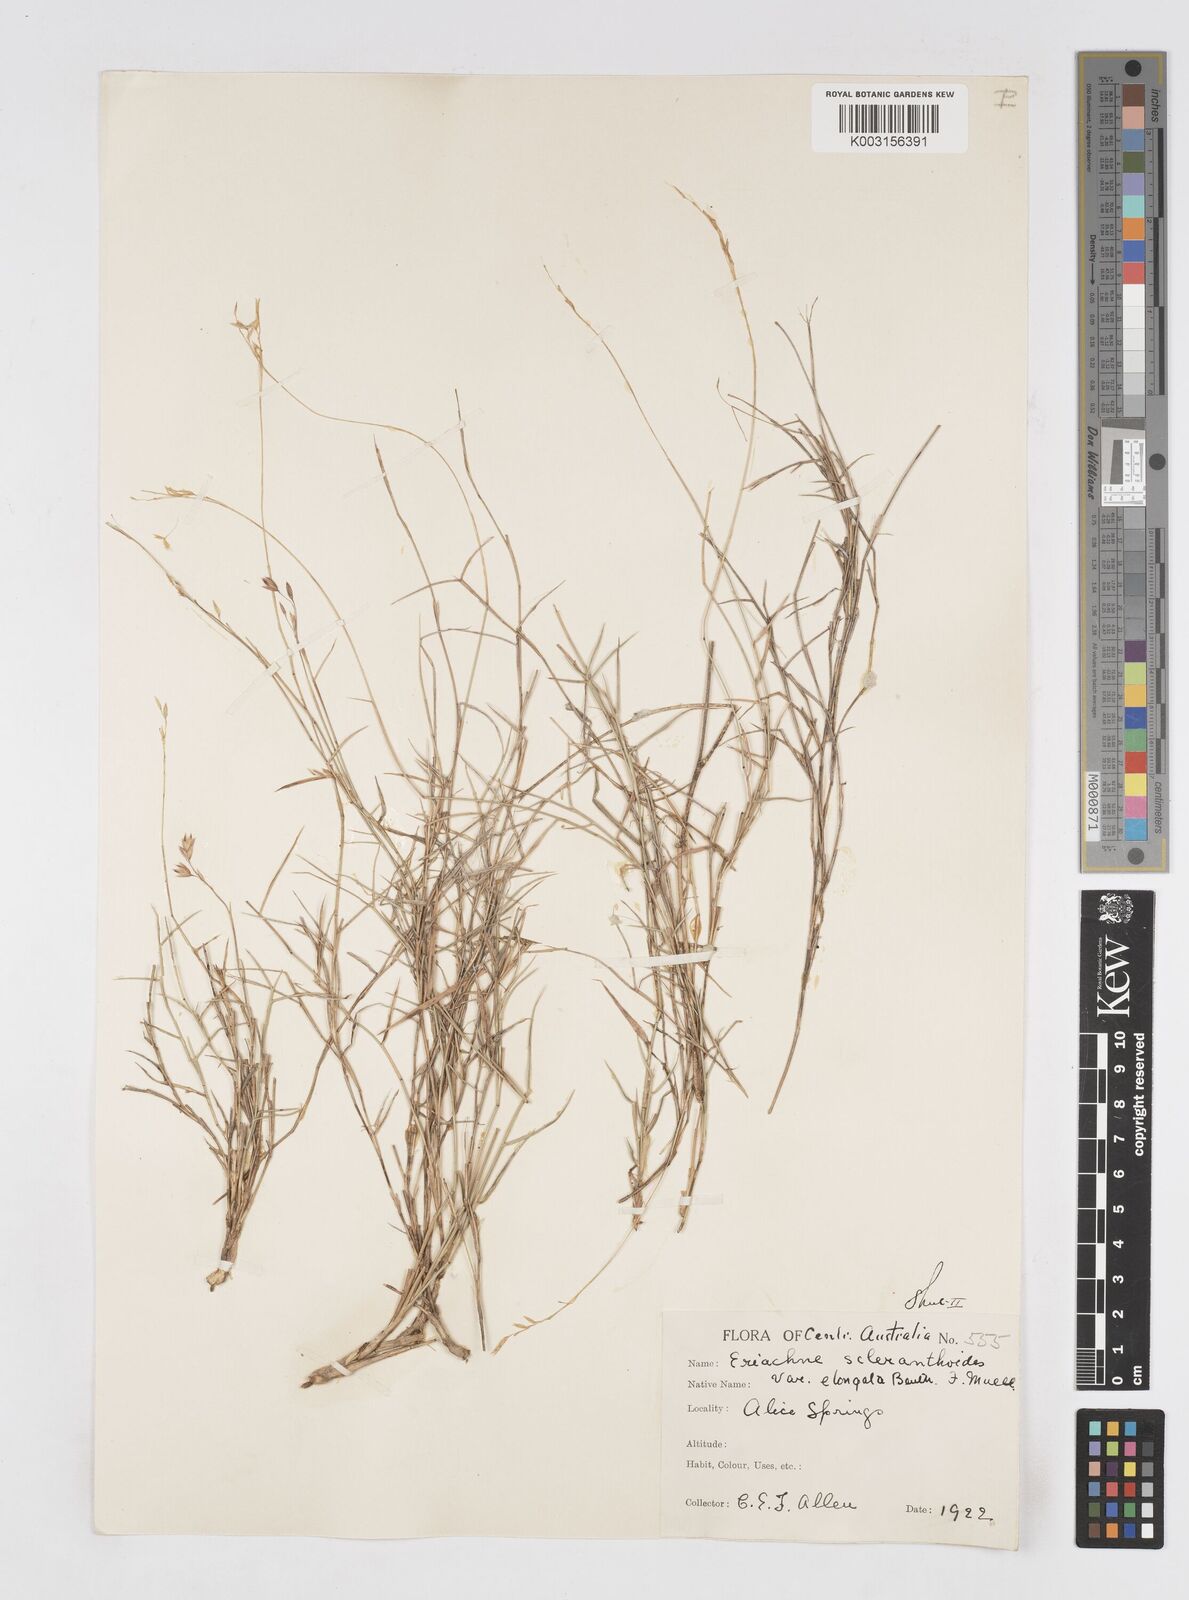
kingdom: Plantae
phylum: Tracheophyta
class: Liliopsida
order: Poales
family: Poaceae
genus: Eriachne
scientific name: Eriachne mucronata
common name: Mountain wanderrie grass
